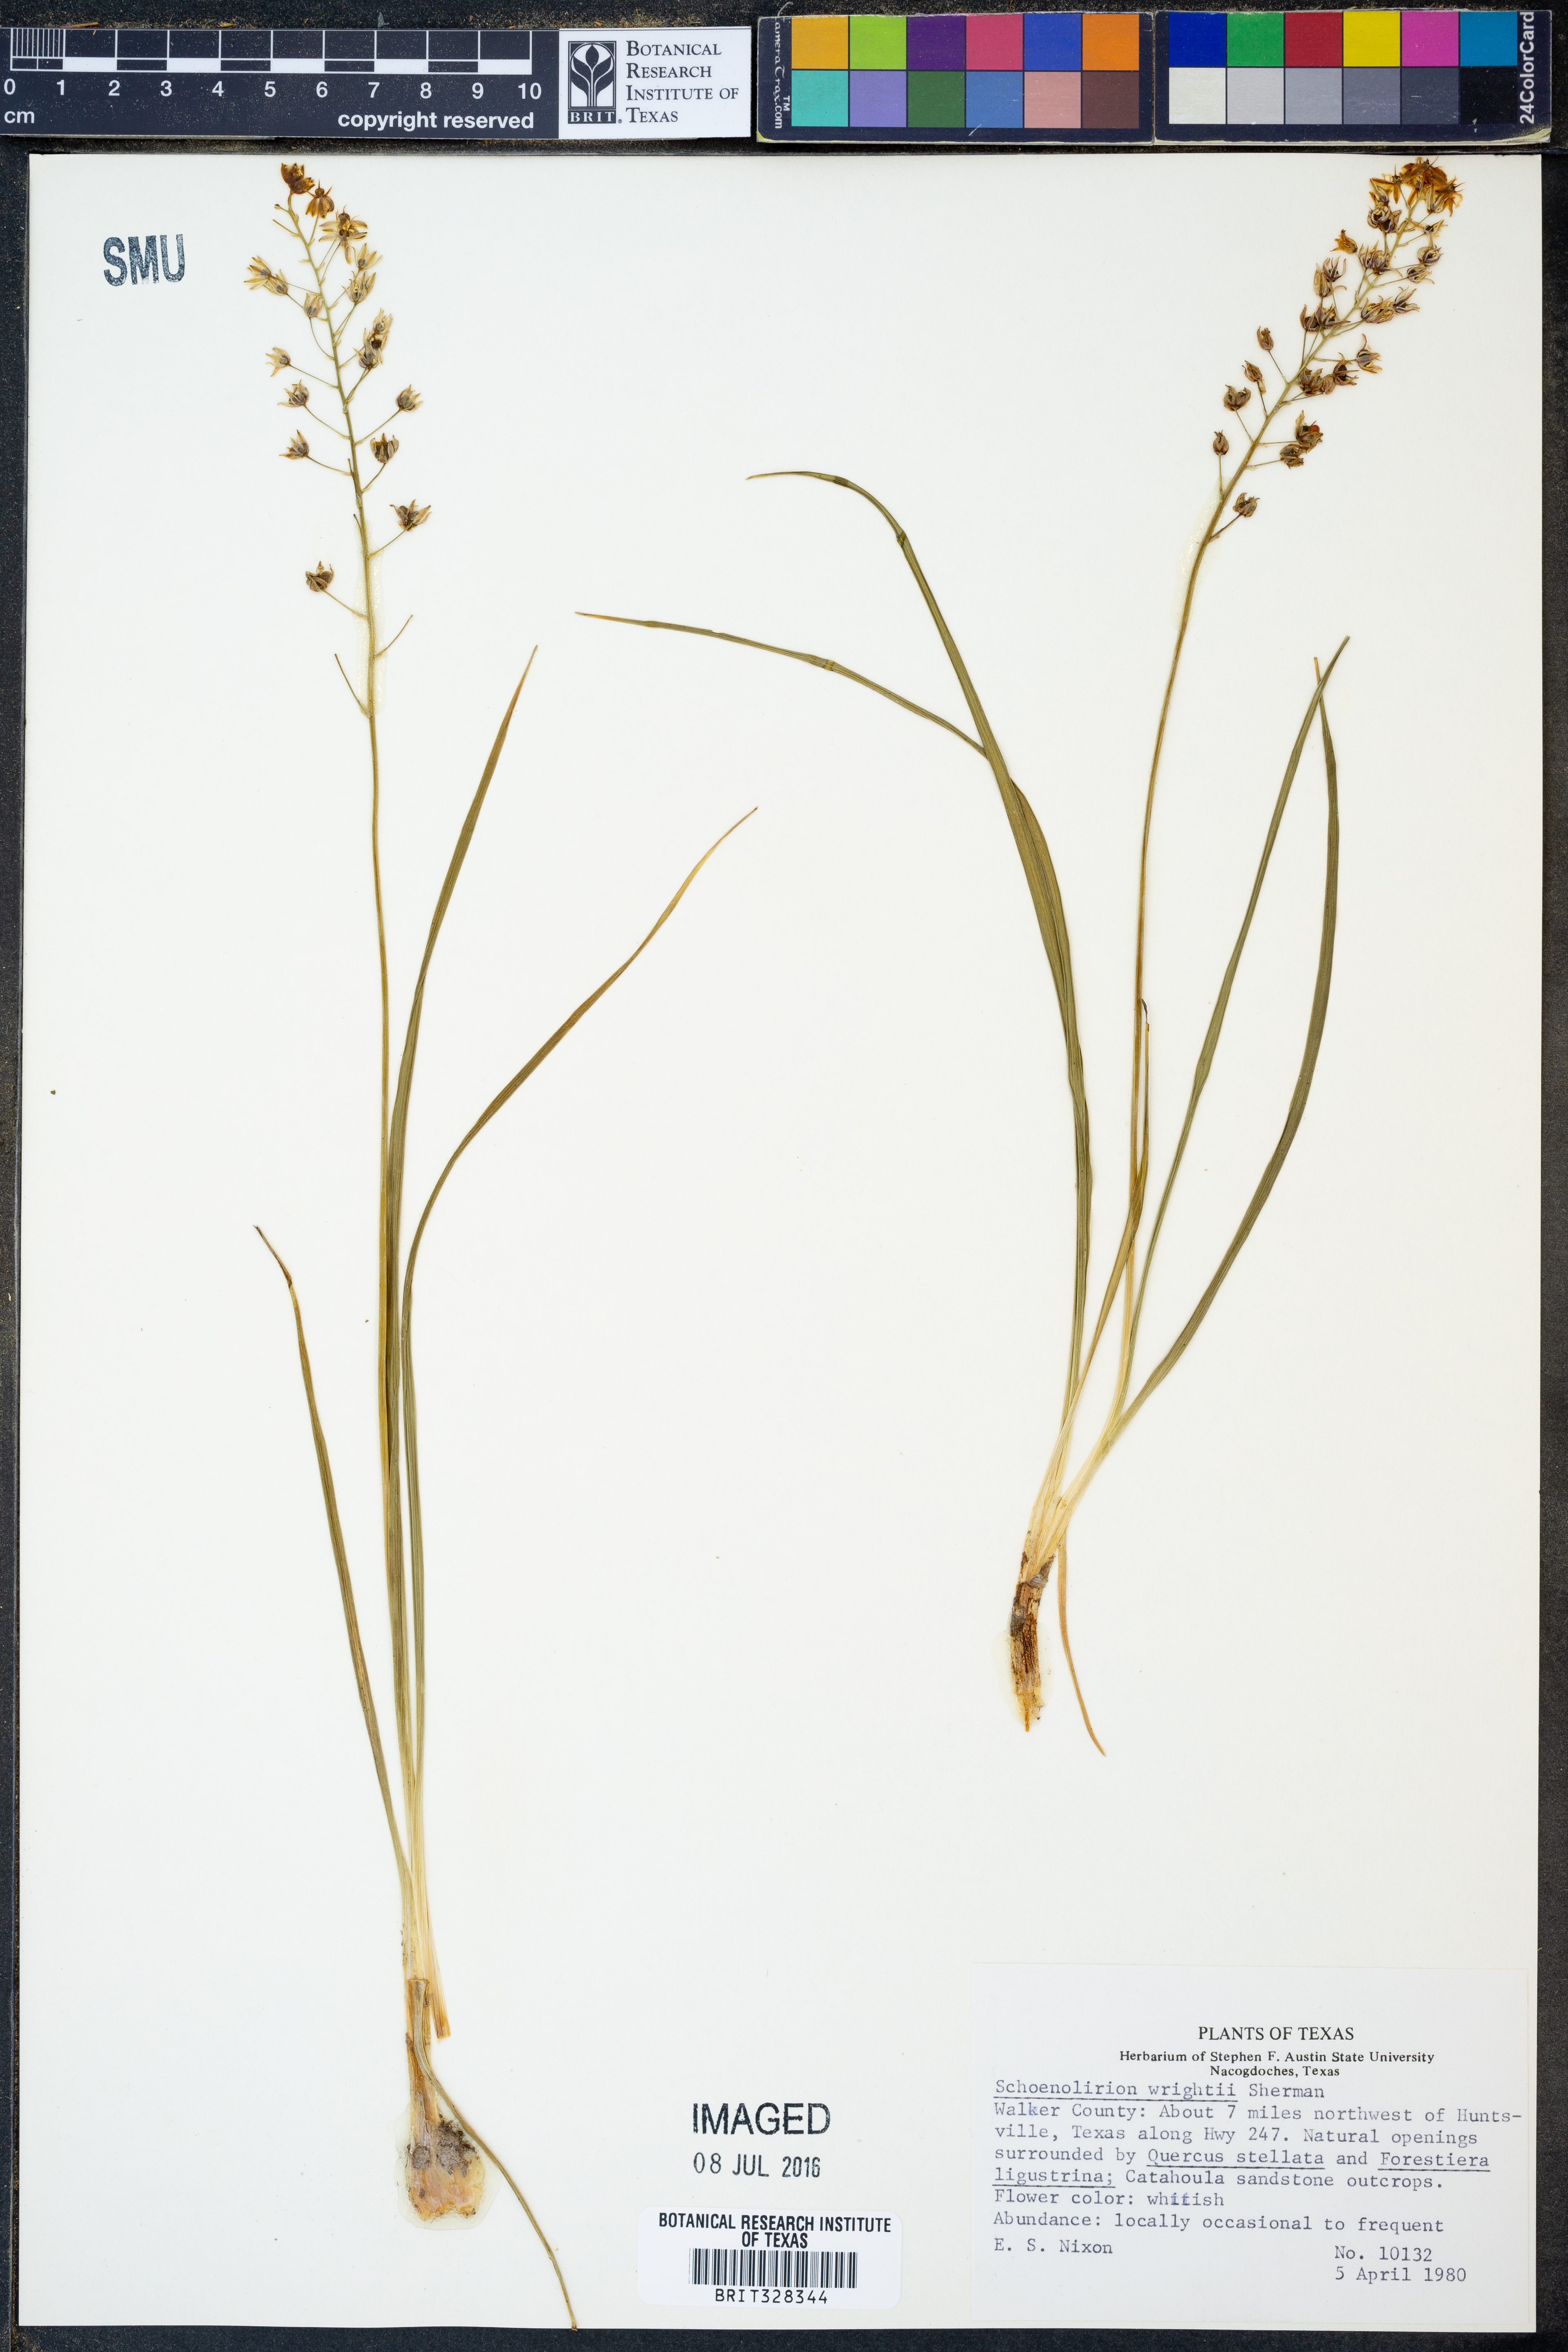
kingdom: Plantae
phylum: Tracheophyta
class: Liliopsida
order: Asparagales
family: Asparagaceae
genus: Schoenolirion
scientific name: Schoenolirion wrightii
